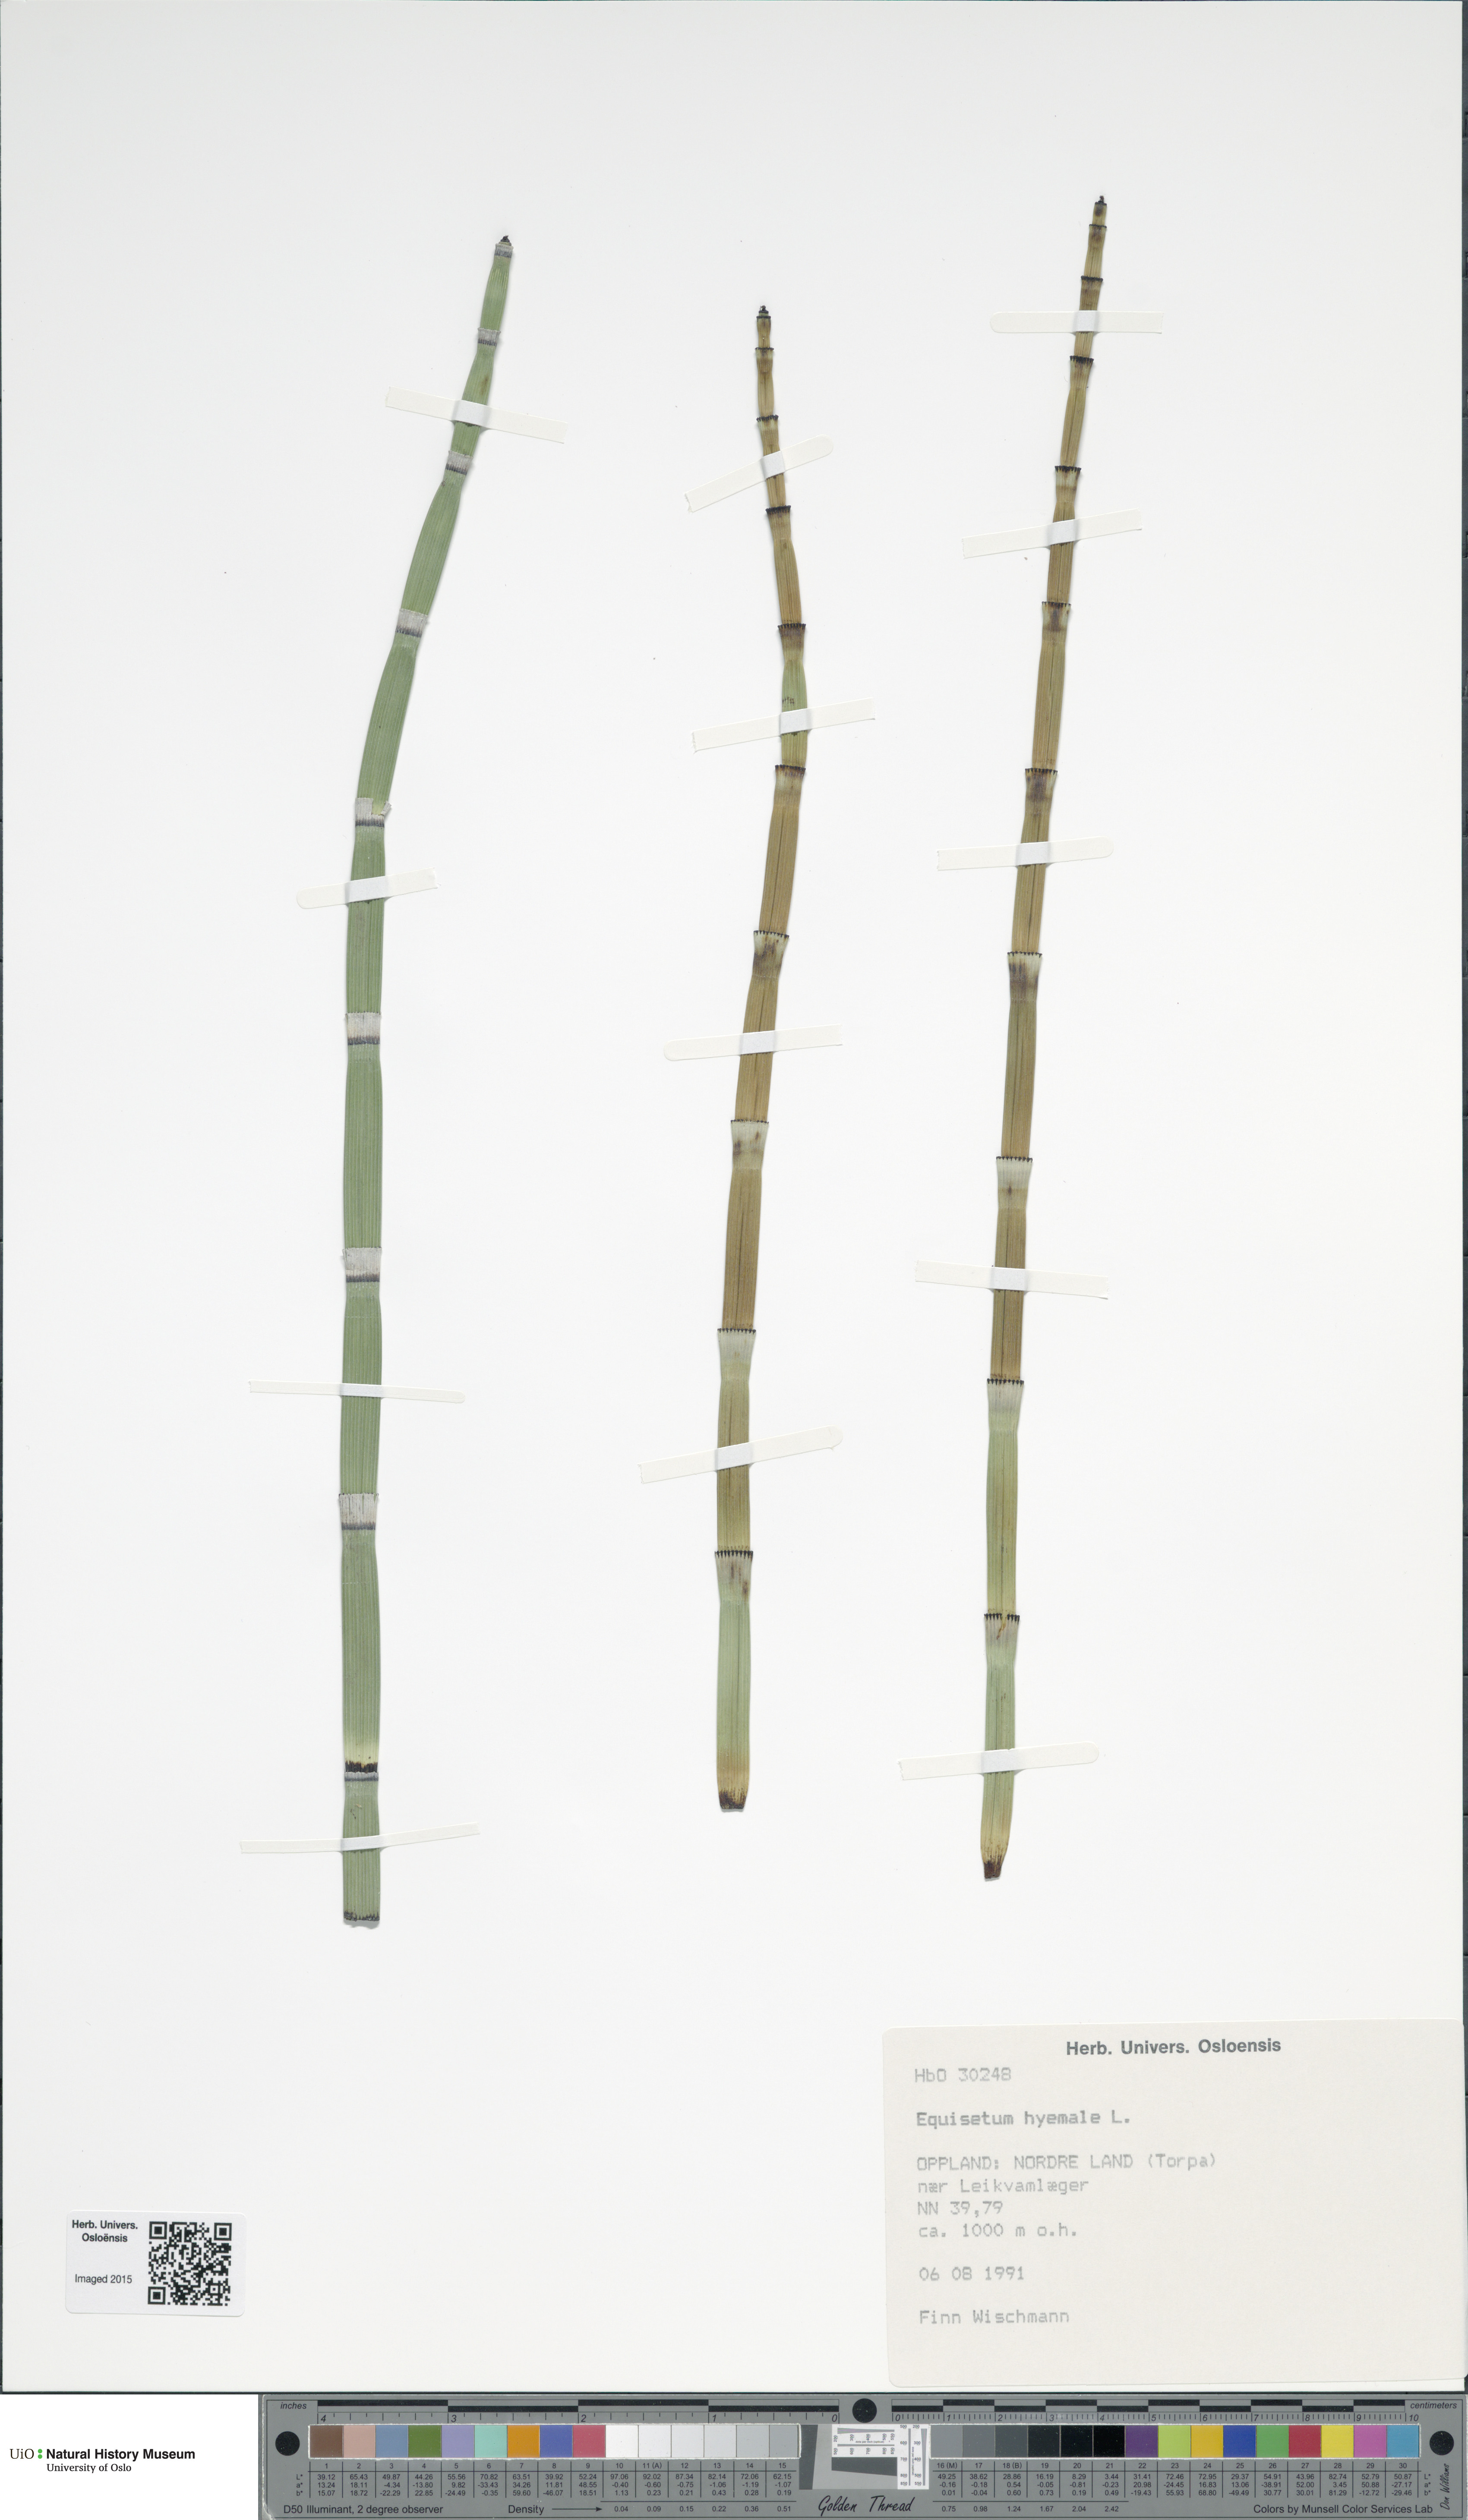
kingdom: Plantae
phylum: Tracheophyta
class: Polypodiopsida
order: Equisetales
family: Equisetaceae
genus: Equisetum
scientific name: Equisetum hyemale
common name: Rough horsetail
